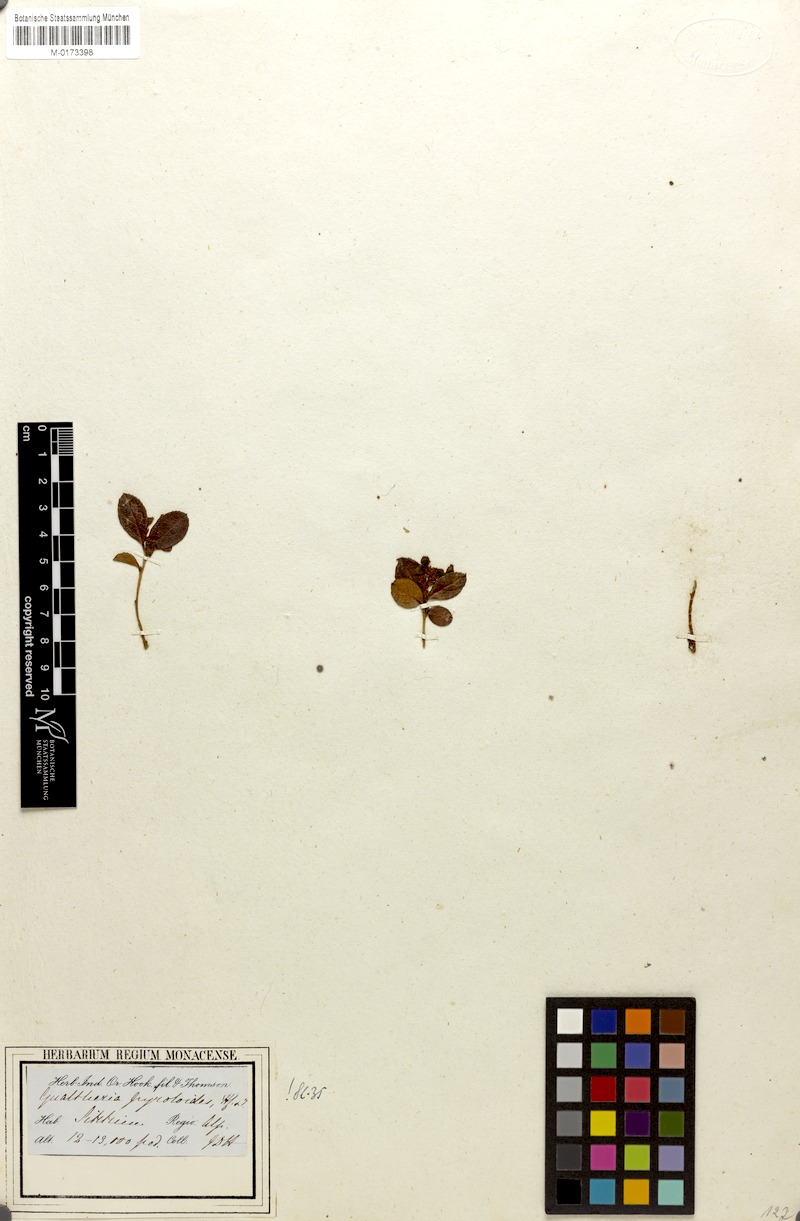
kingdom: Plantae
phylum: Tracheophyta
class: Magnoliopsida
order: Ericales
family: Ericaceae
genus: Gaultheria
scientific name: Gaultheria pyrolifolia
